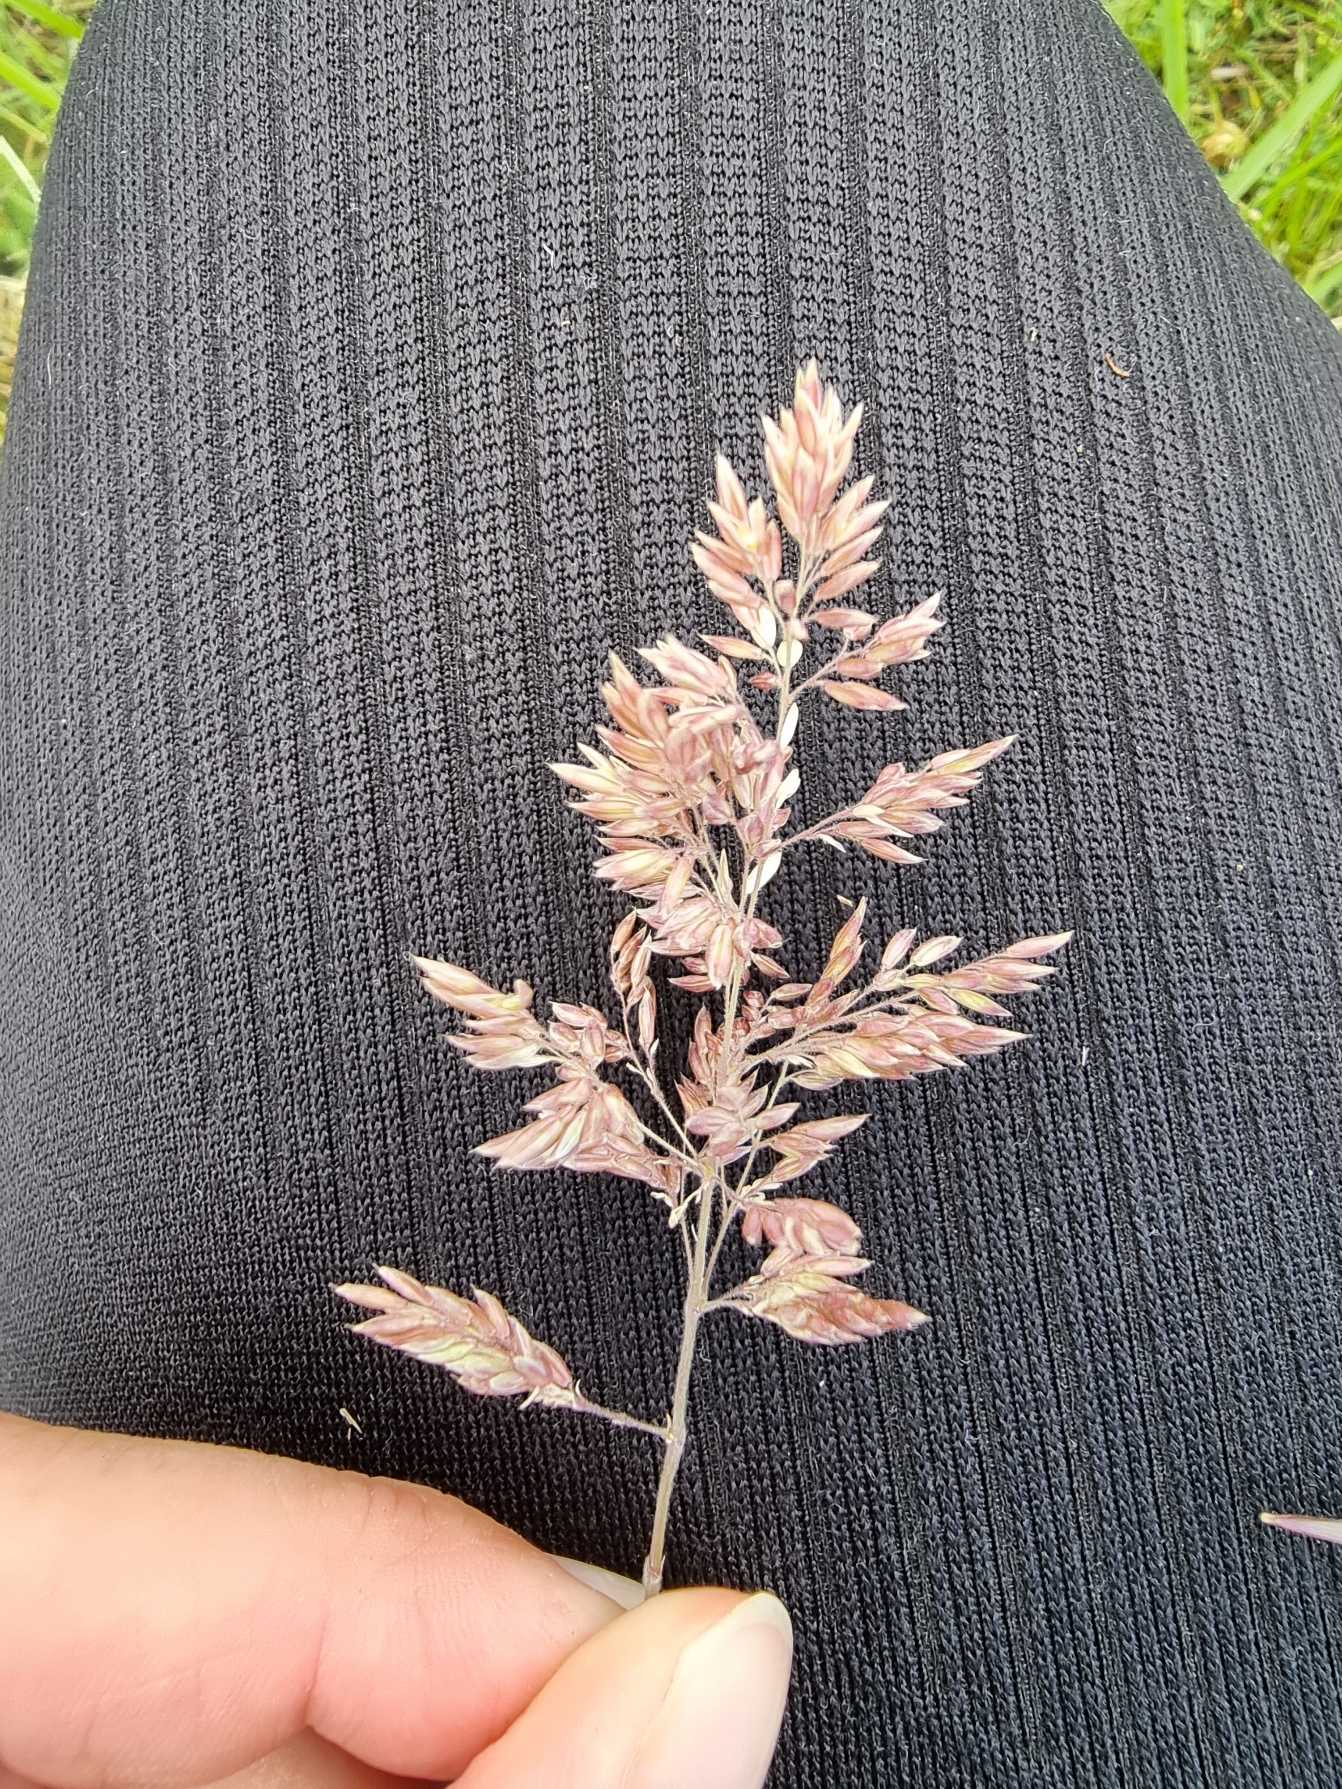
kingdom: Plantae
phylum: Tracheophyta
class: Liliopsida
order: Poales
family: Poaceae
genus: Holcus
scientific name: Holcus lanatus
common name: Fløjlsgræs
